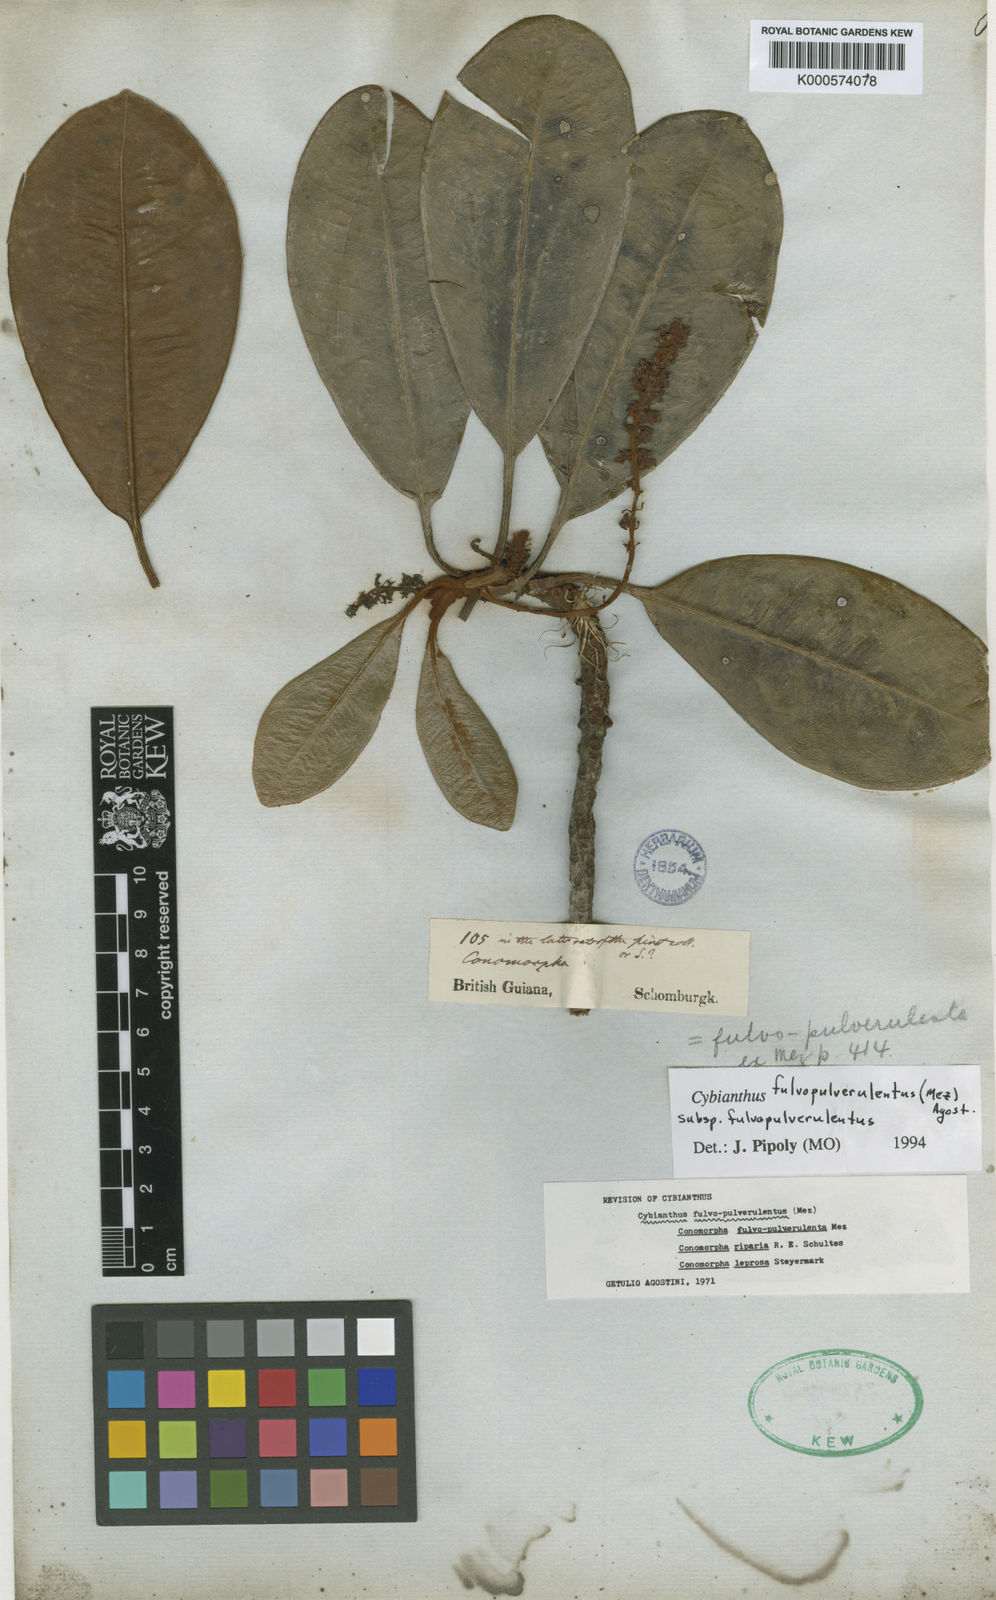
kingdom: Plantae
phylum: Tracheophyta
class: Magnoliopsida
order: Ericales
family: Primulaceae
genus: Cybianthus
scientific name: Cybianthus fulvopulverulentus
